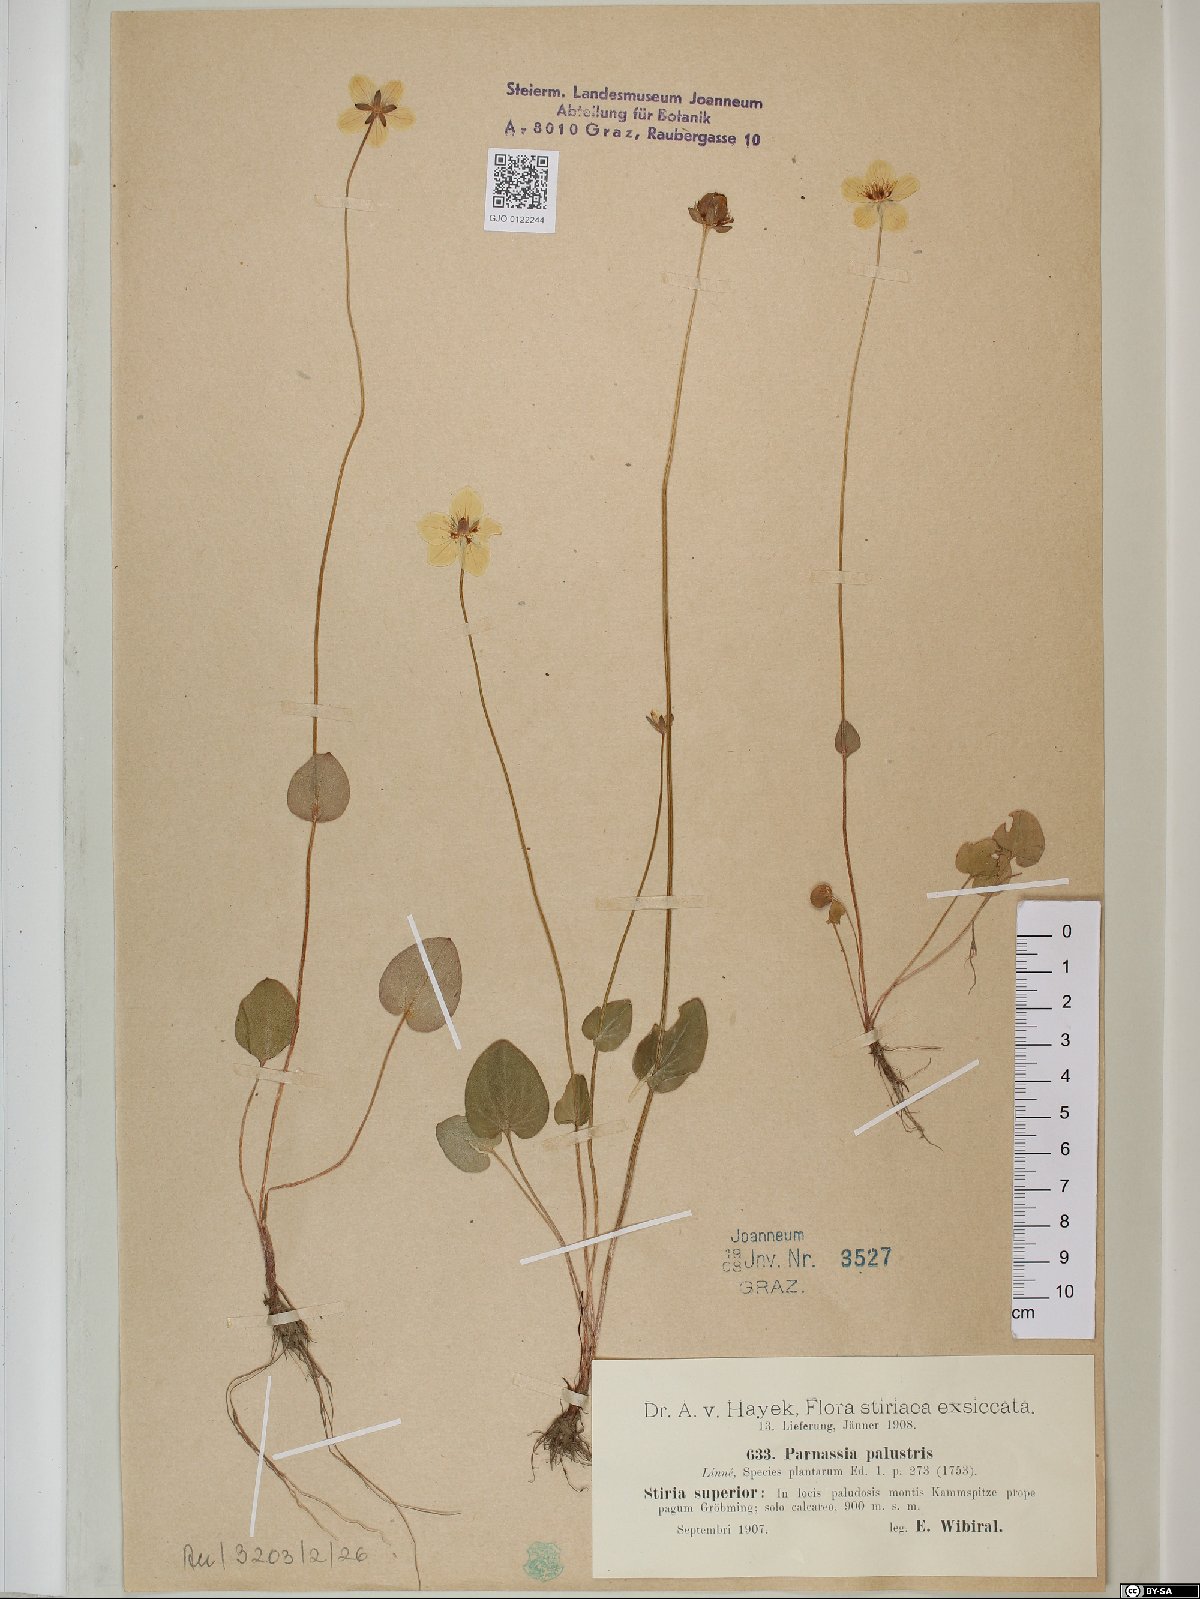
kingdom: Plantae
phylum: Tracheophyta
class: Magnoliopsida
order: Celastrales
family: Parnassiaceae
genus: Parnassia
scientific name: Parnassia palustris
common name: Grass-of-parnassus
